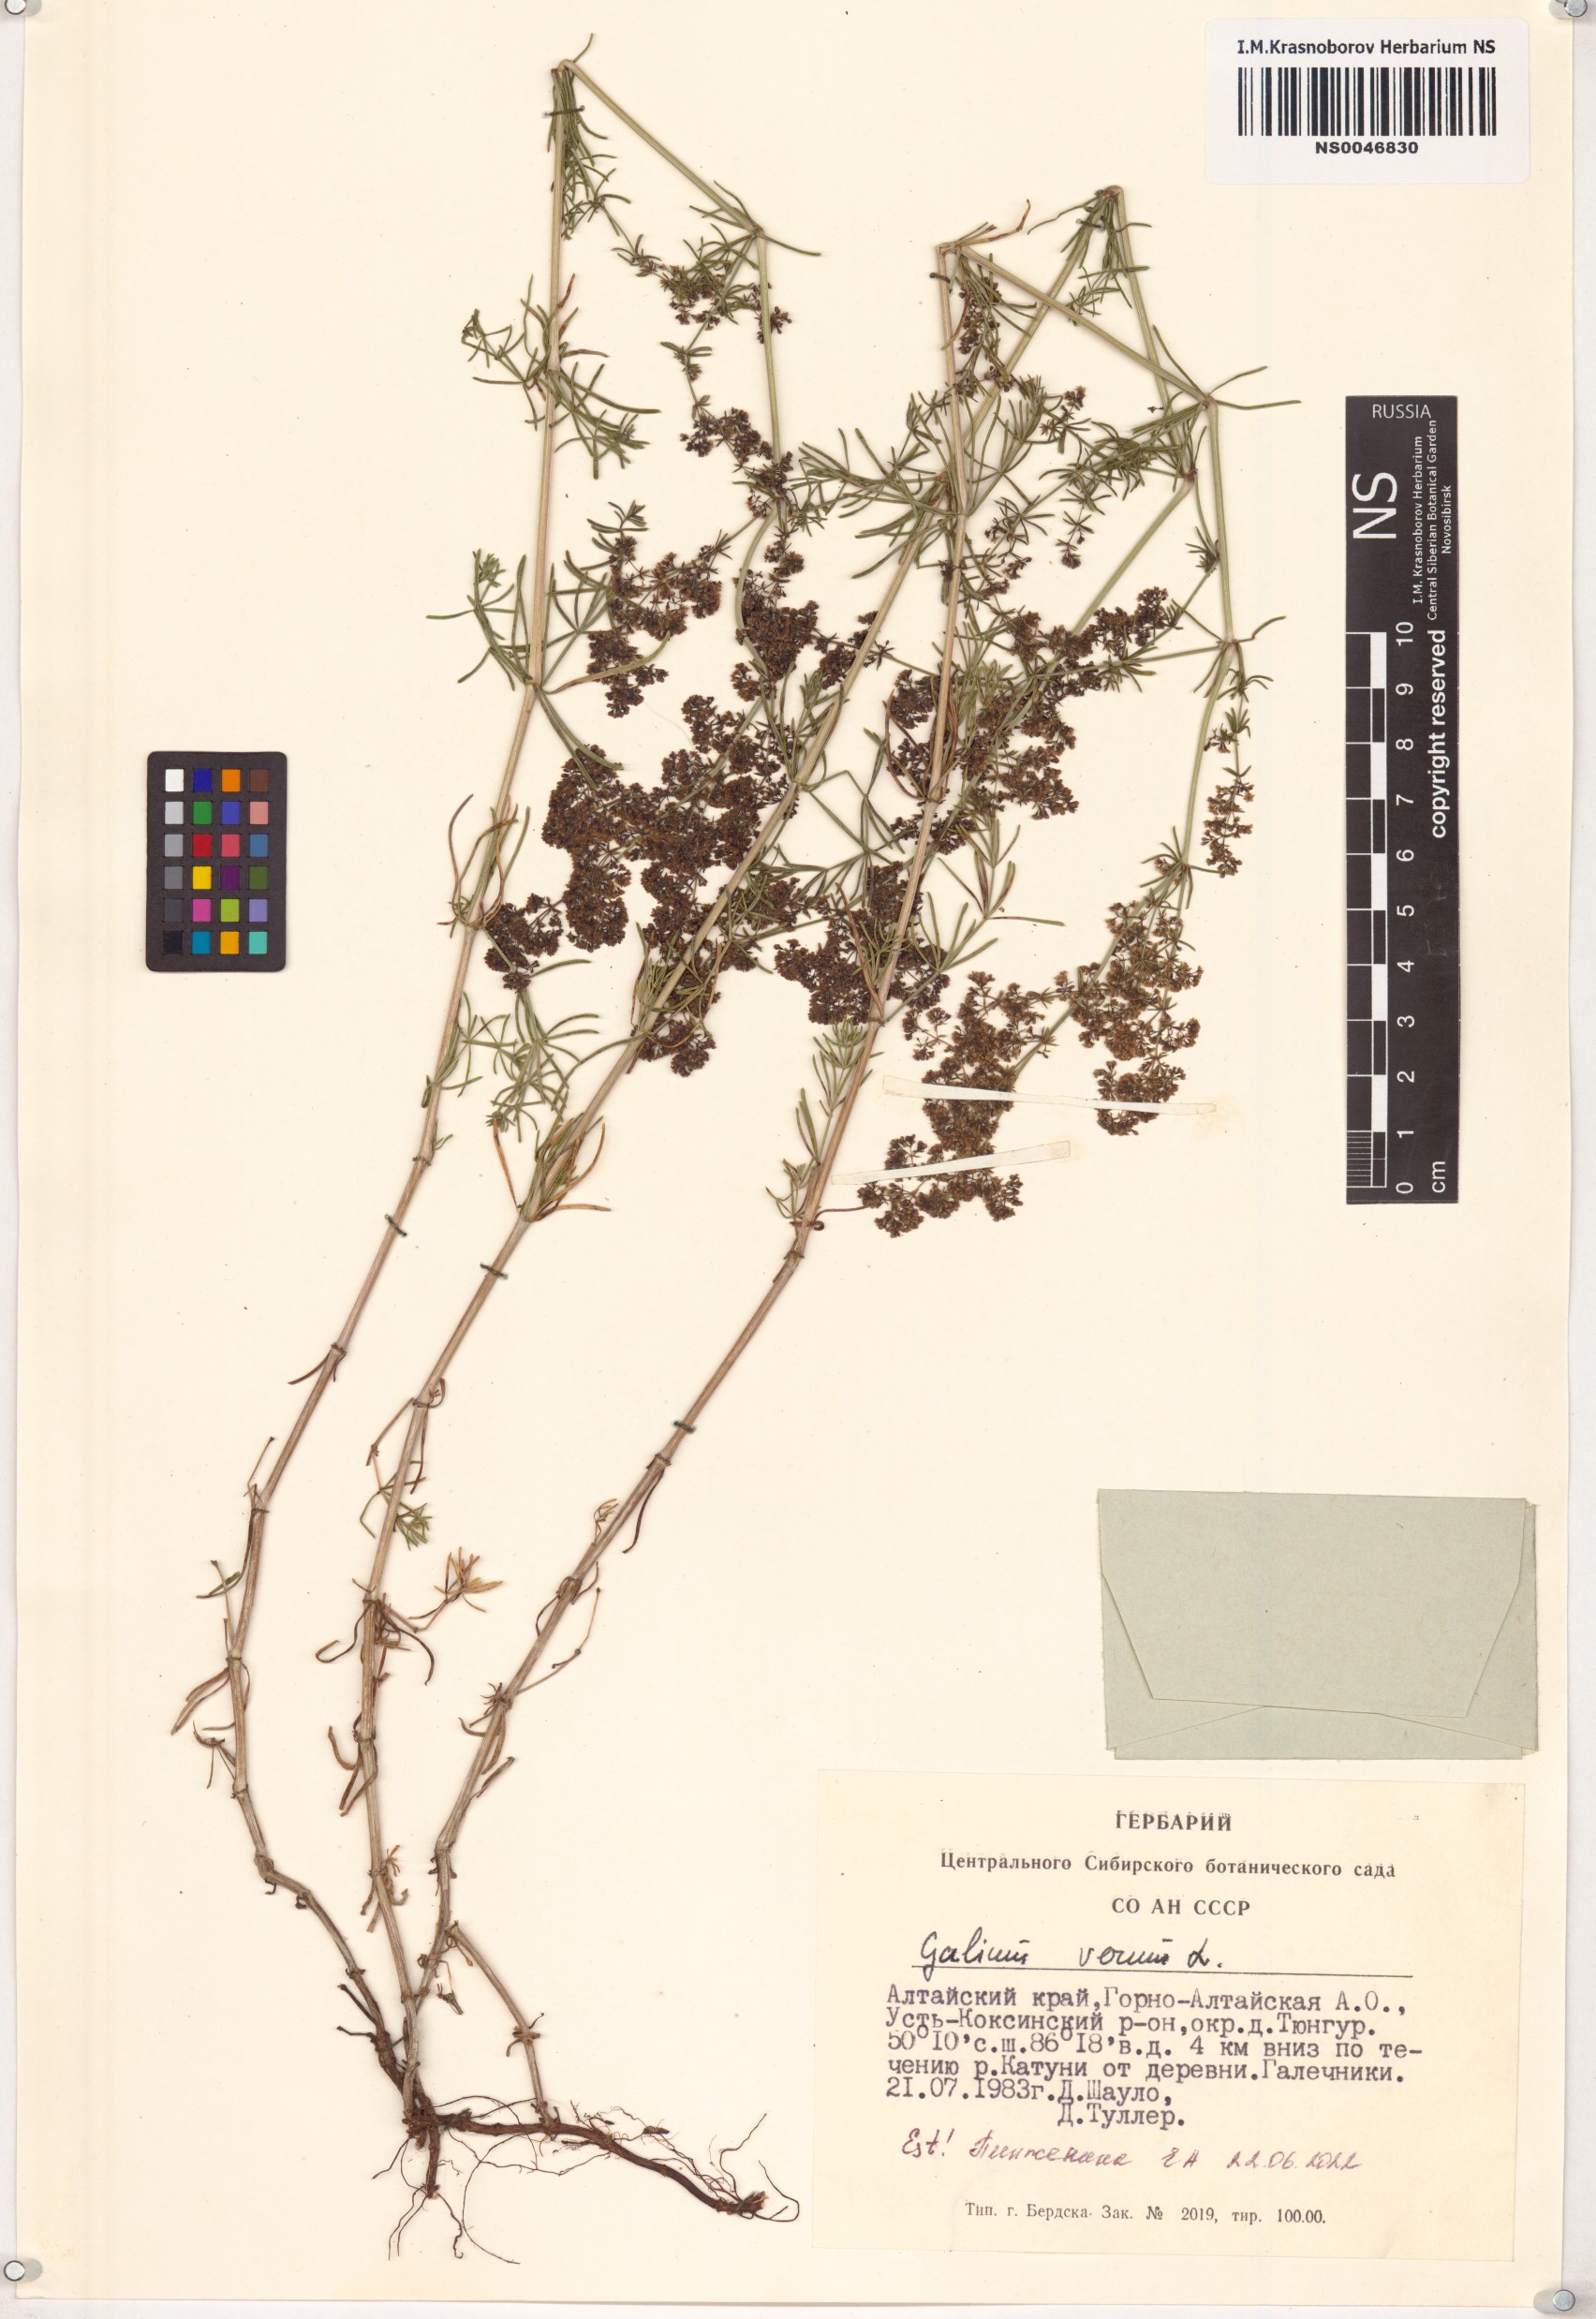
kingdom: Plantae
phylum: Tracheophyta
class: Magnoliopsida
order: Gentianales
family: Rubiaceae
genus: Galium
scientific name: Galium verum
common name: Lady's bedstraw
